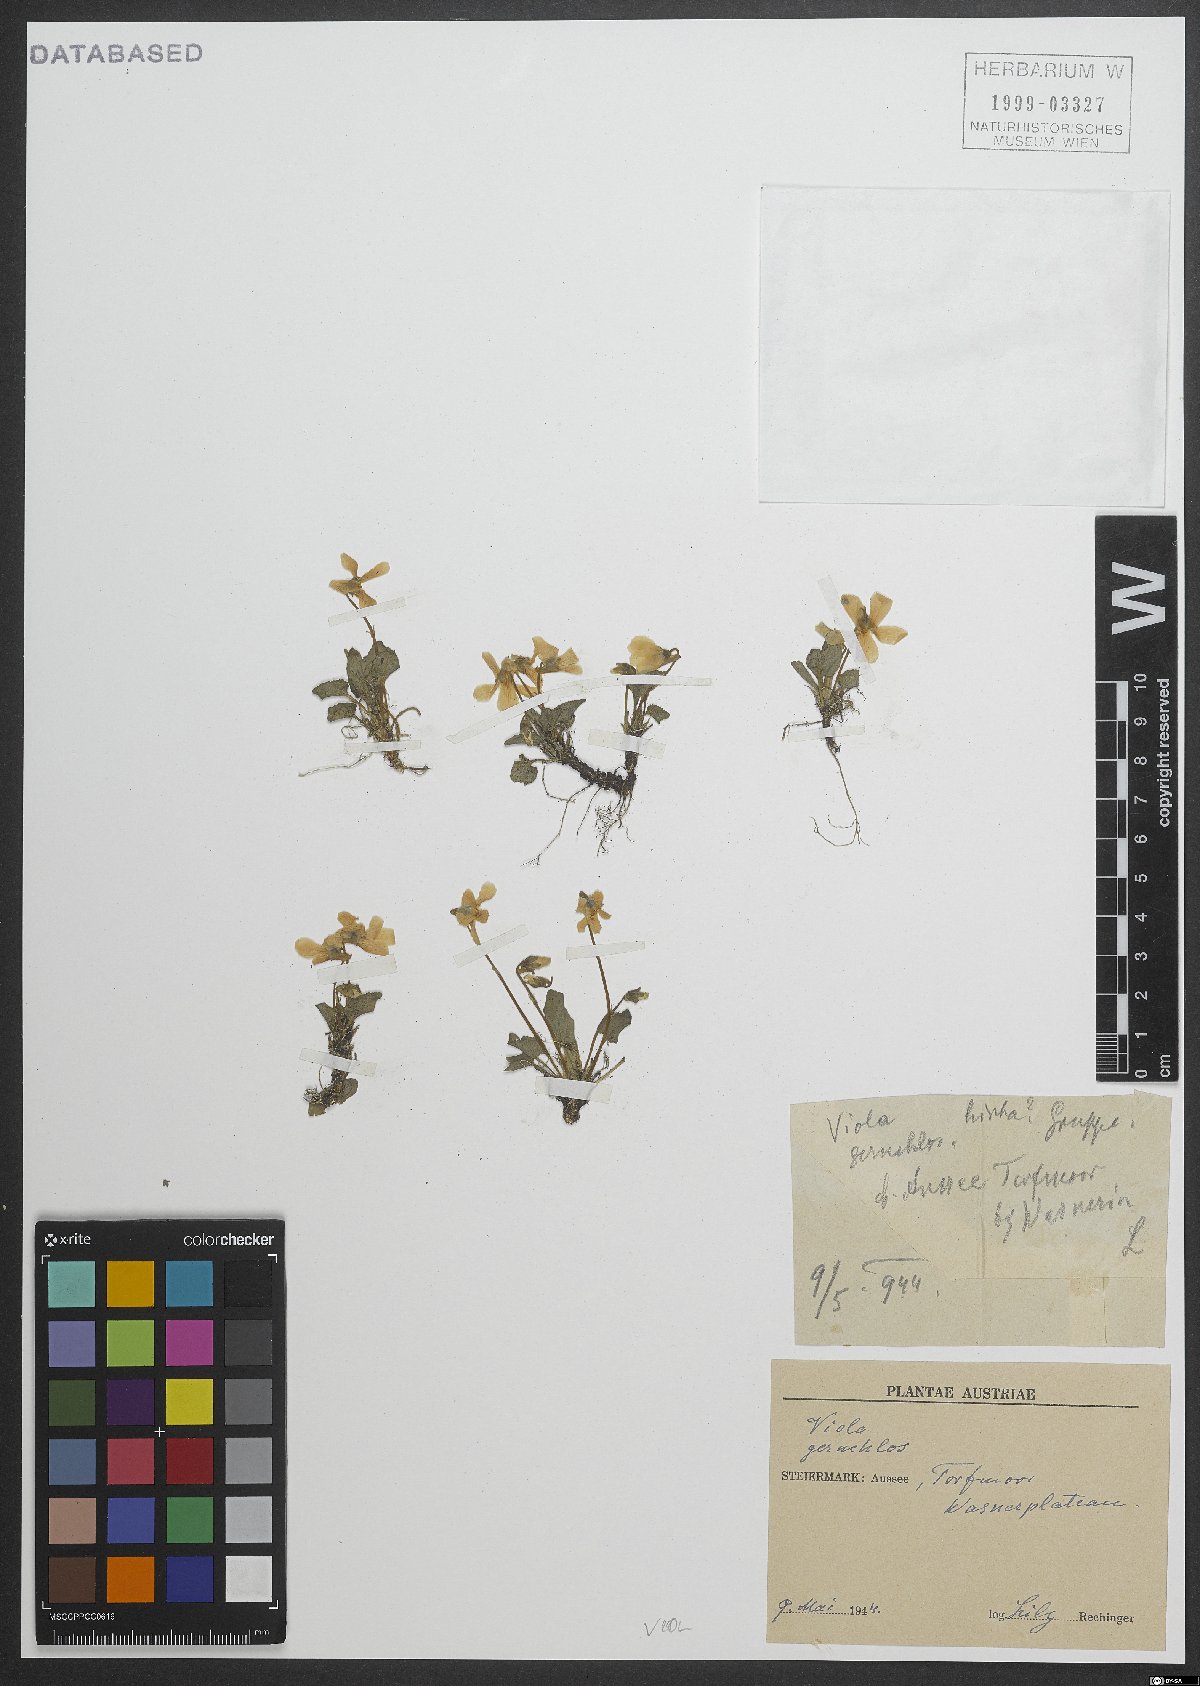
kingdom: Plantae
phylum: Tracheophyta
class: Magnoliopsida
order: Malpighiales
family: Violaceae
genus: Viola
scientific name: Viola
